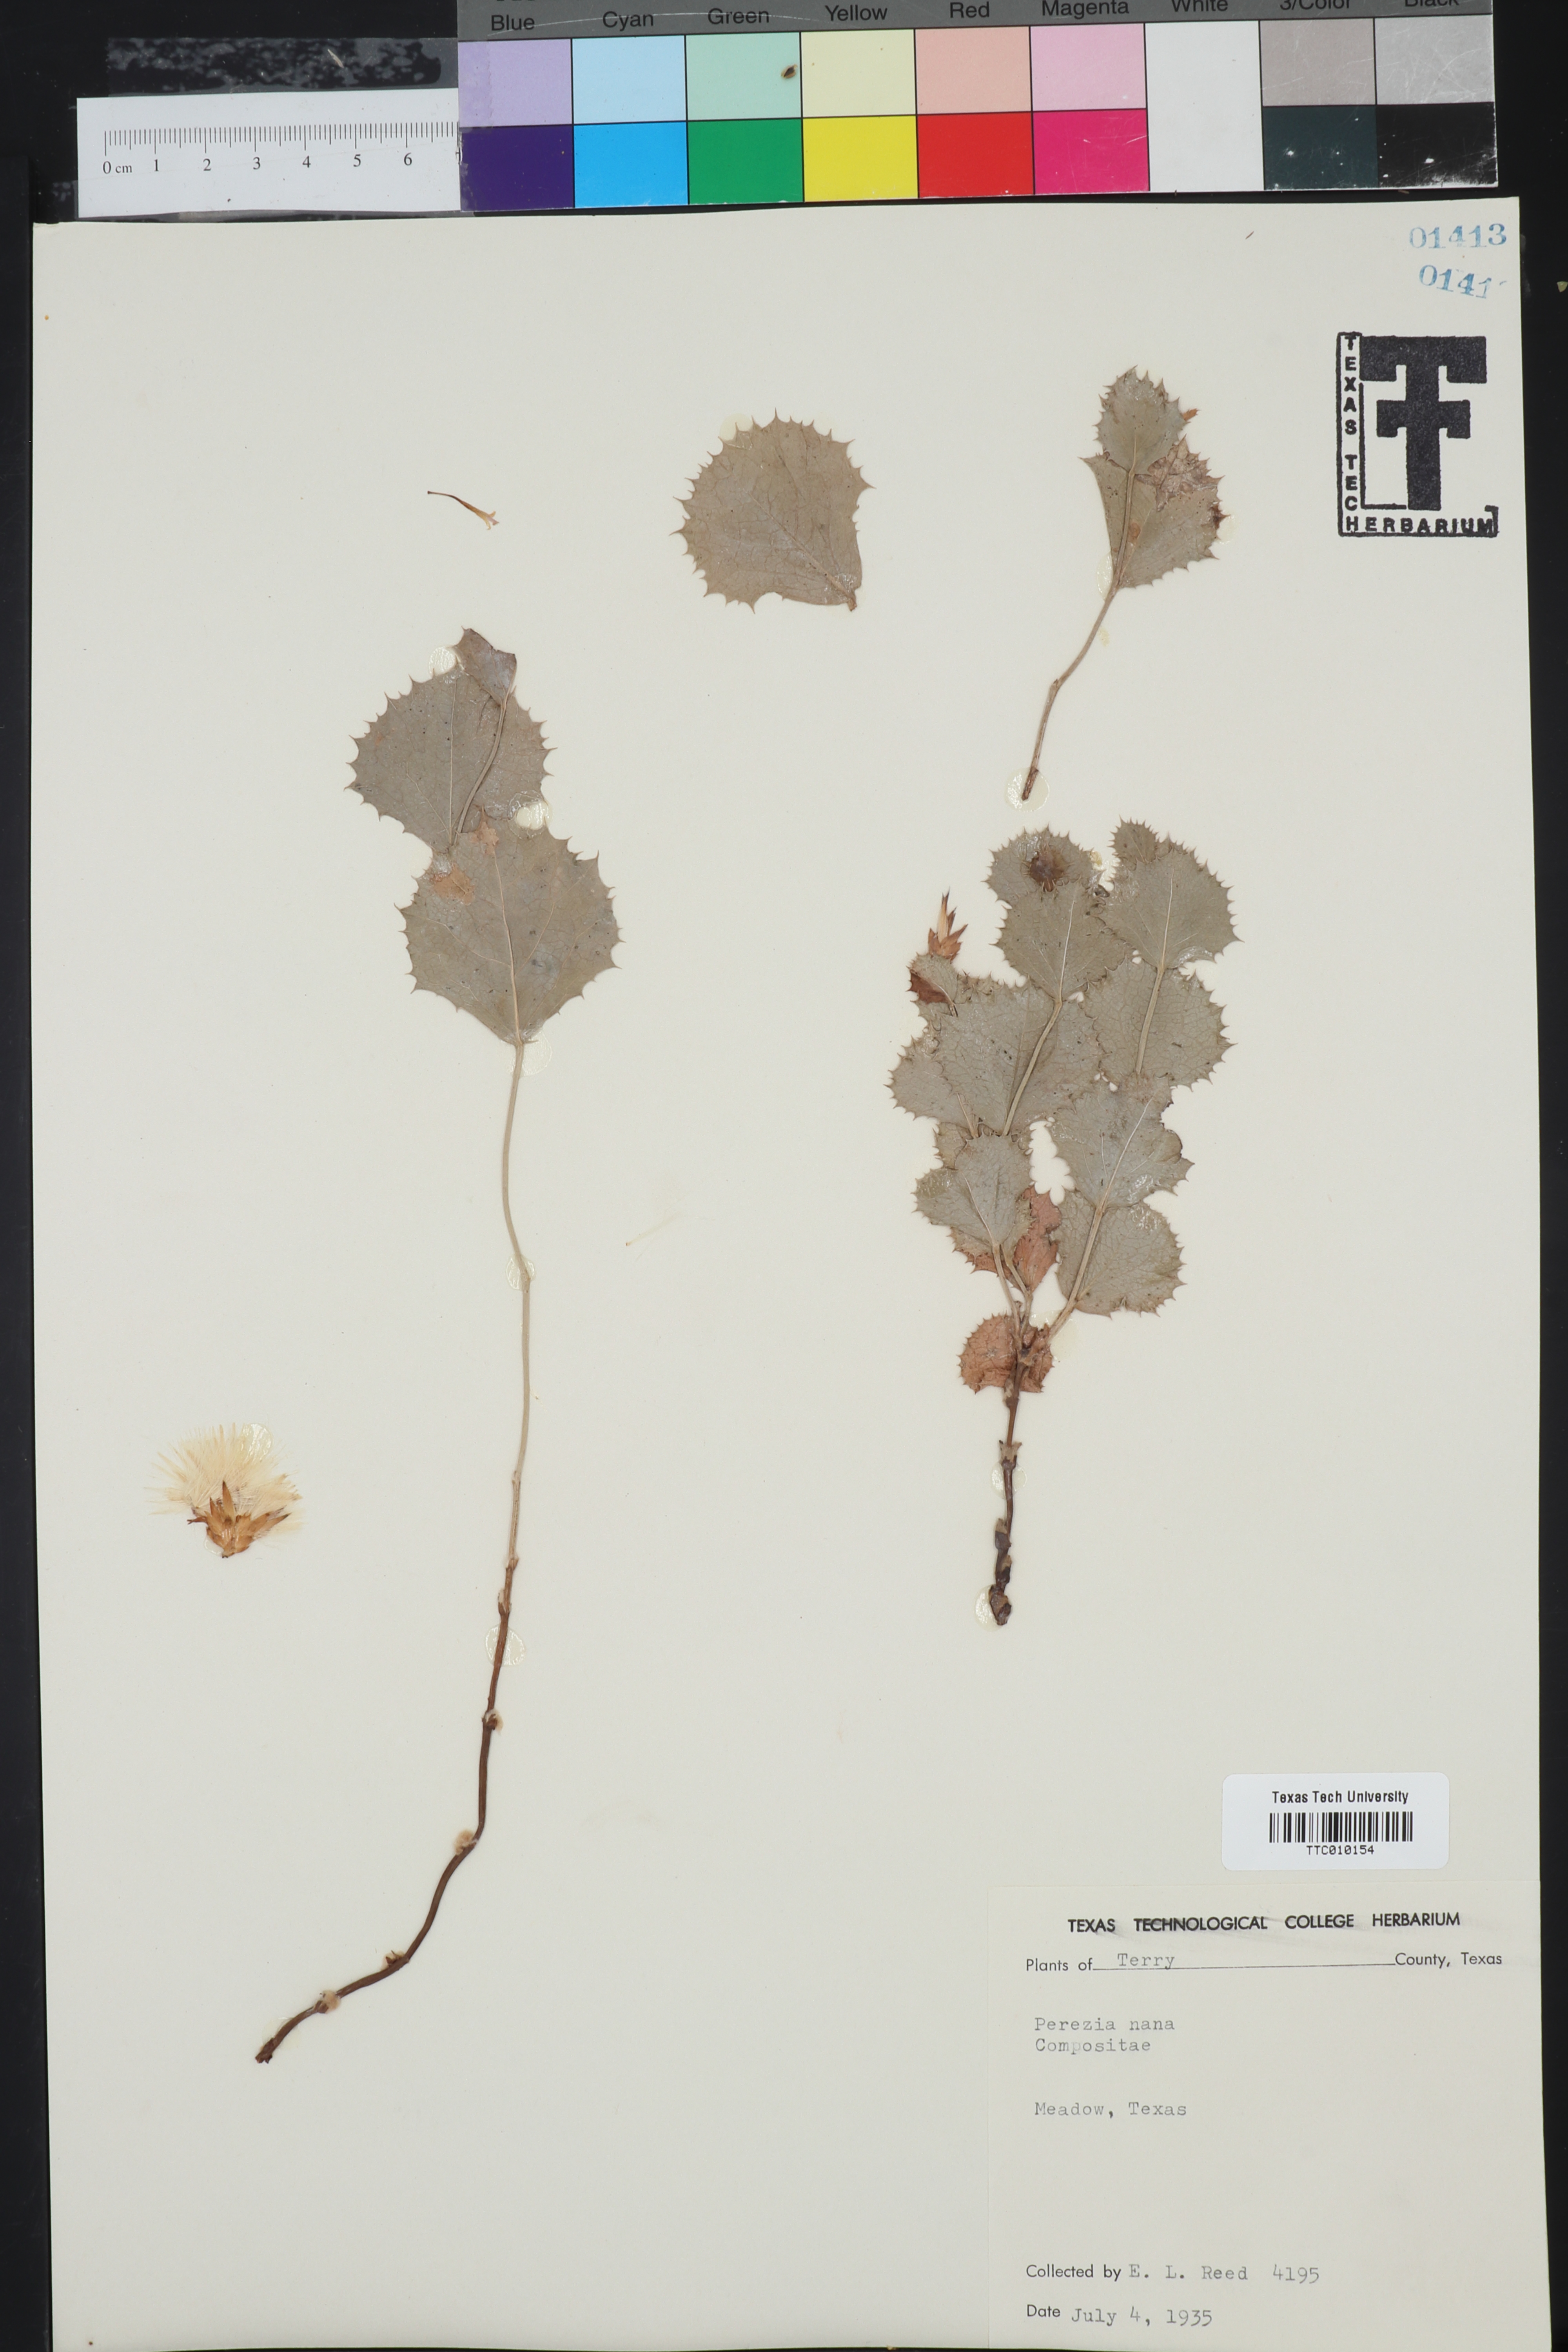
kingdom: Plantae
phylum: Tracheophyta
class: Magnoliopsida
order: Asterales
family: Asteraceae
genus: Acourtia
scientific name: Acourtia nana
